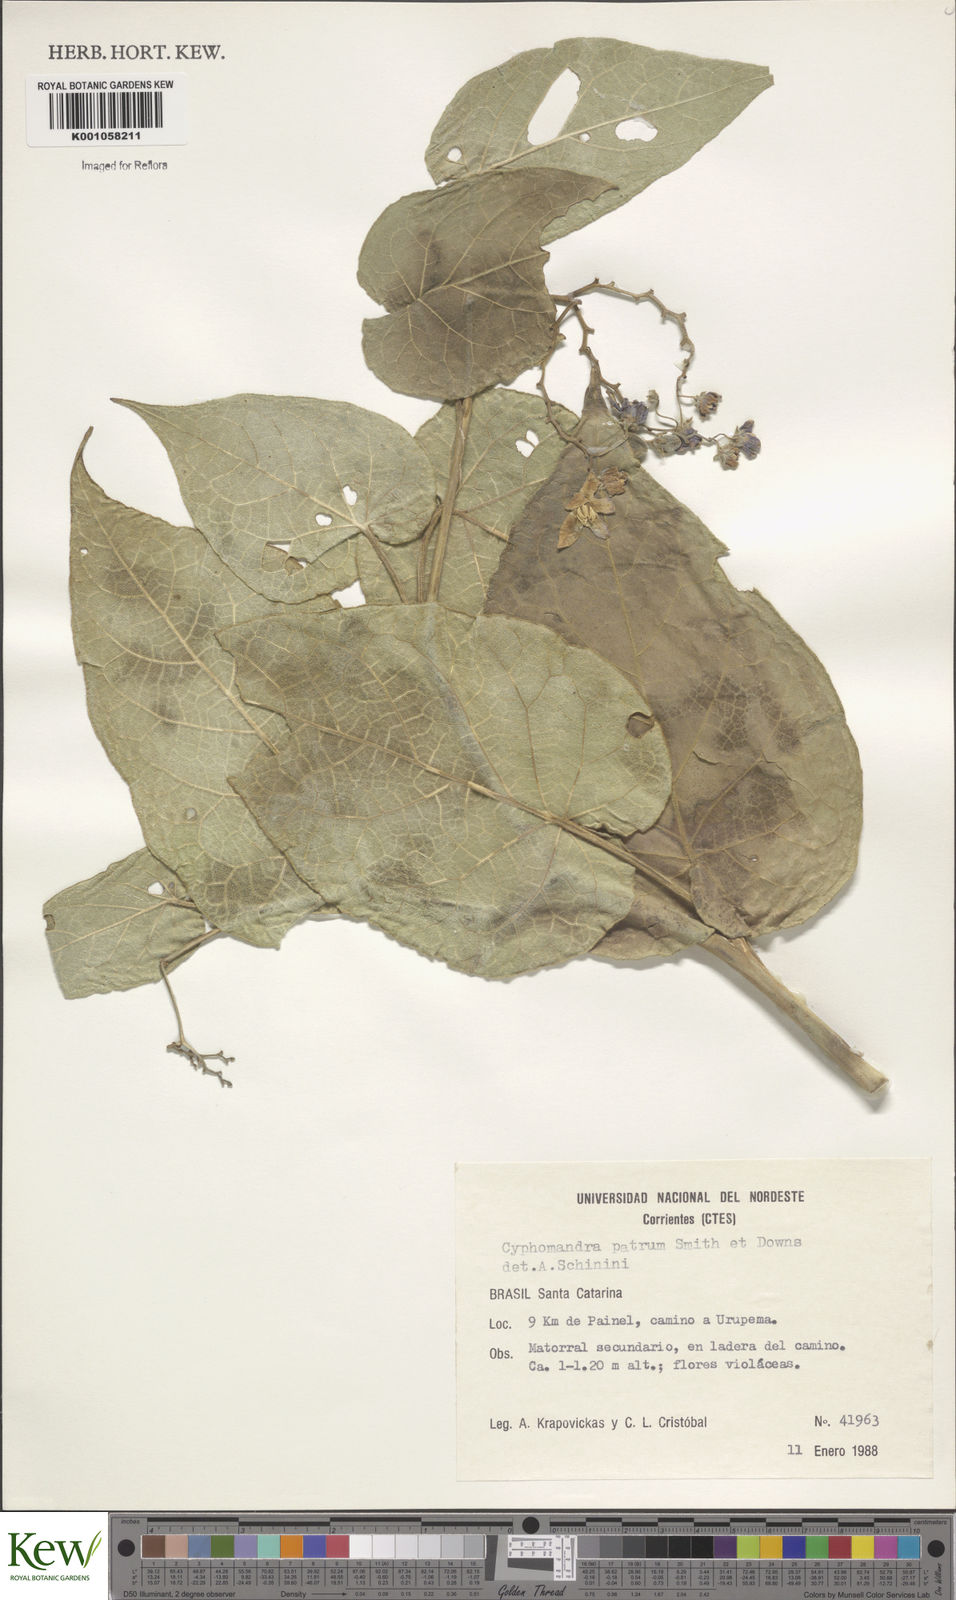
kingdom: Plantae
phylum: Tracheophyta
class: Magnoliopsida
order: Solanales
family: Solanaceae
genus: Solanum
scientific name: Solanum corymbiflorum
